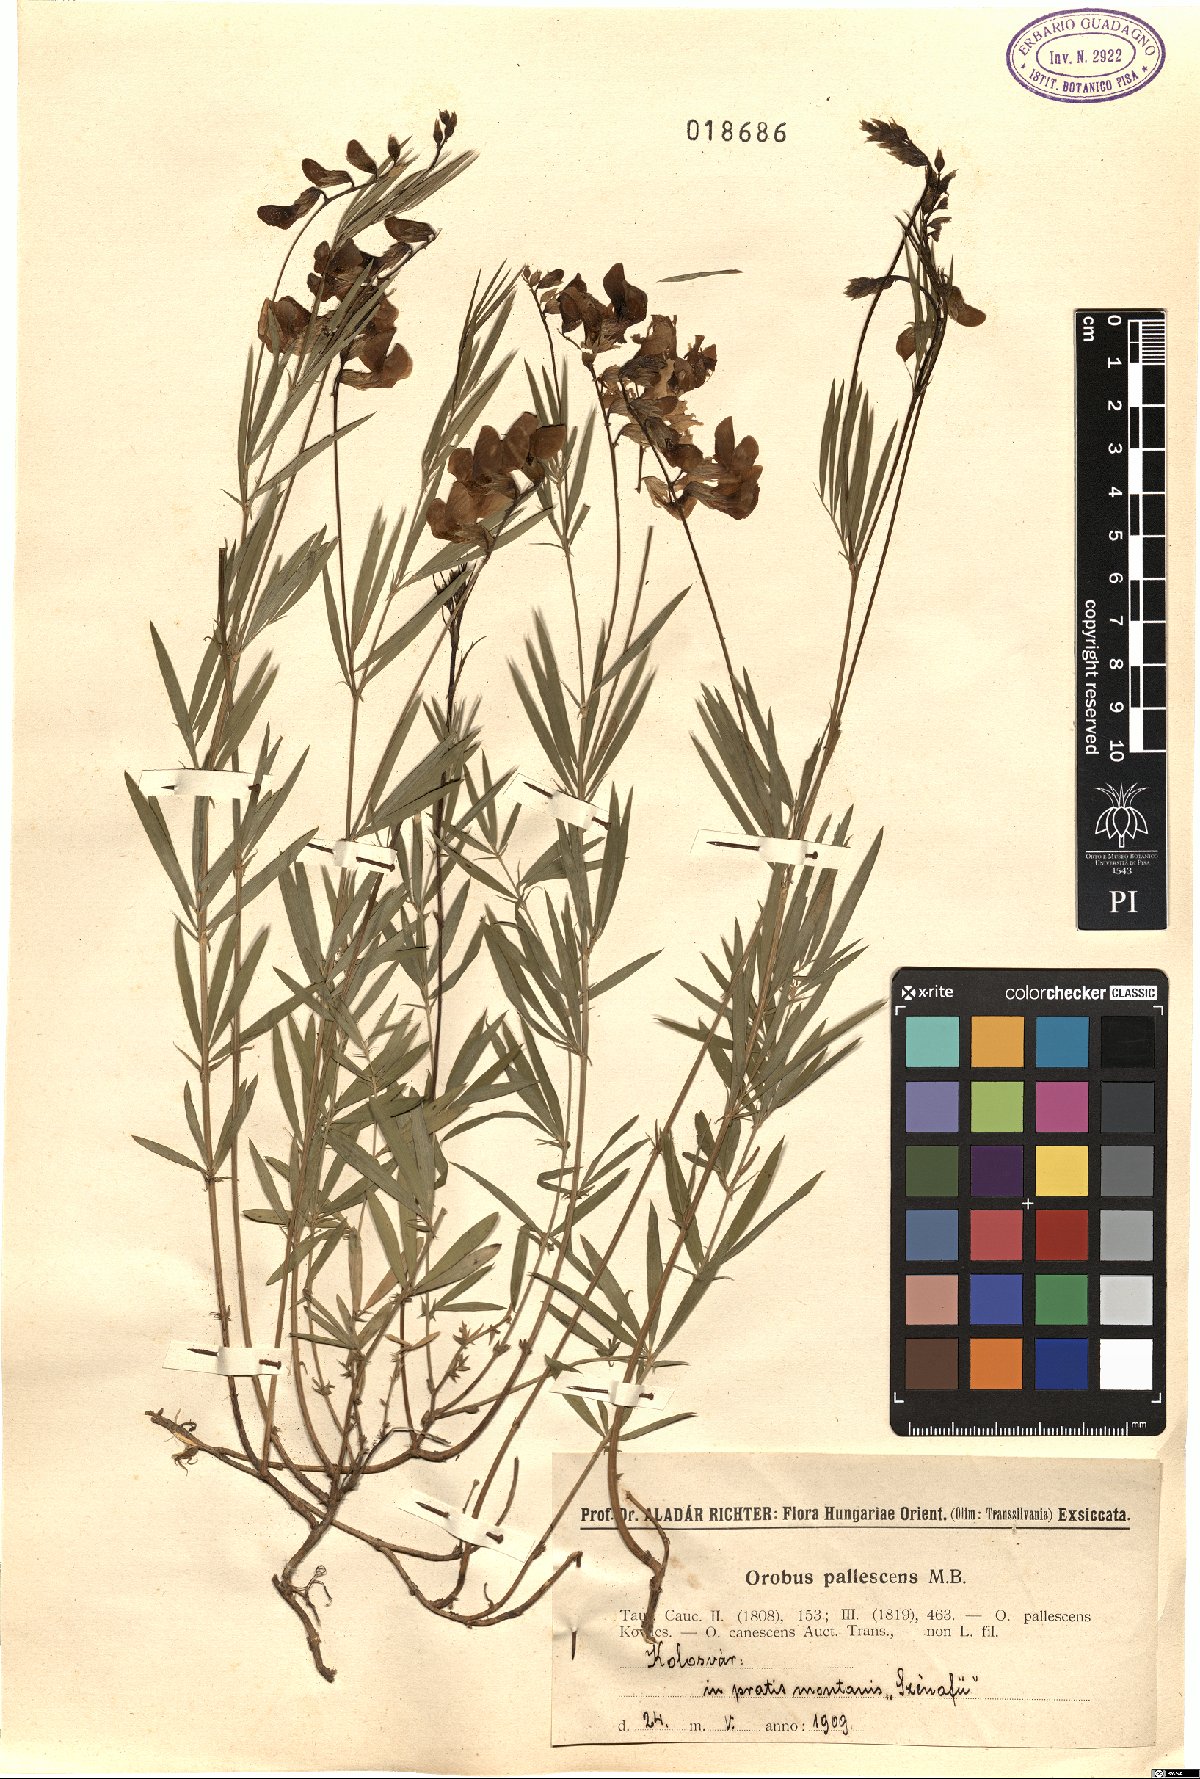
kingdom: Plantae
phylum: Tracheophyta
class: Magnoliopsida
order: Fabales
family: Fabaceae
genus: Lathyrus
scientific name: Lathyrus pallescens
